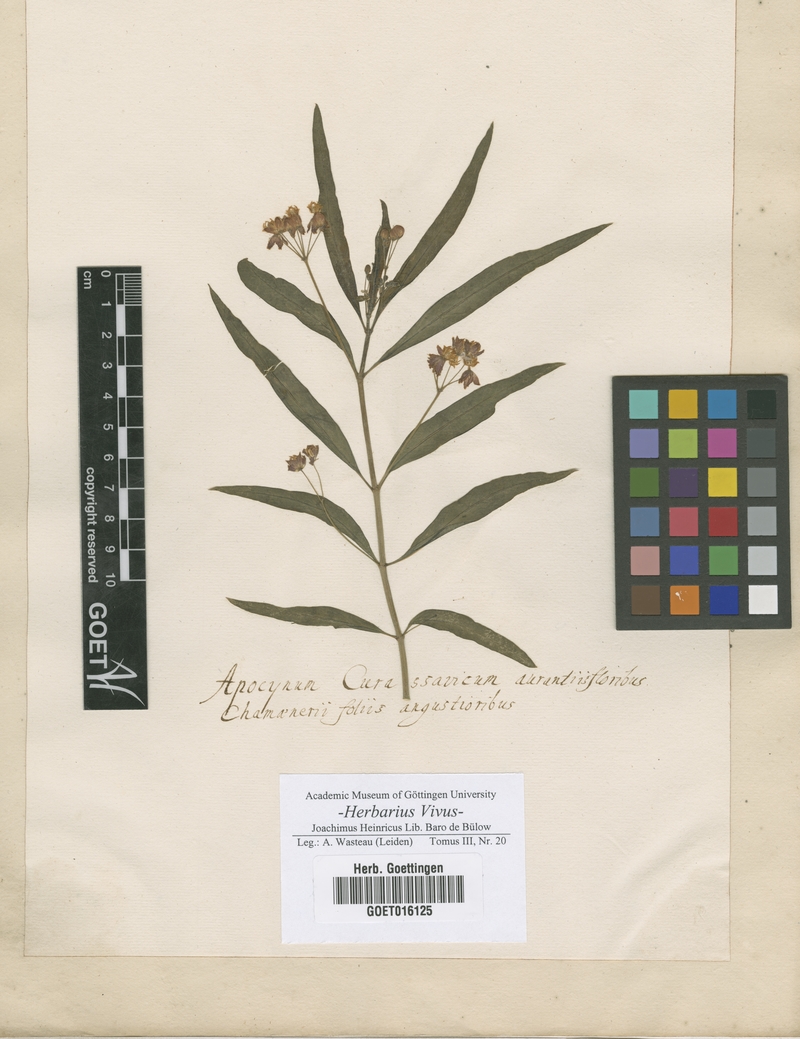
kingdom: Plantae
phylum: Tracheophyta
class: Magnoliopsida
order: Gentianales
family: Apocynaceae
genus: Asclepias
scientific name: Asclepias curassavica
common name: Bloodflower
